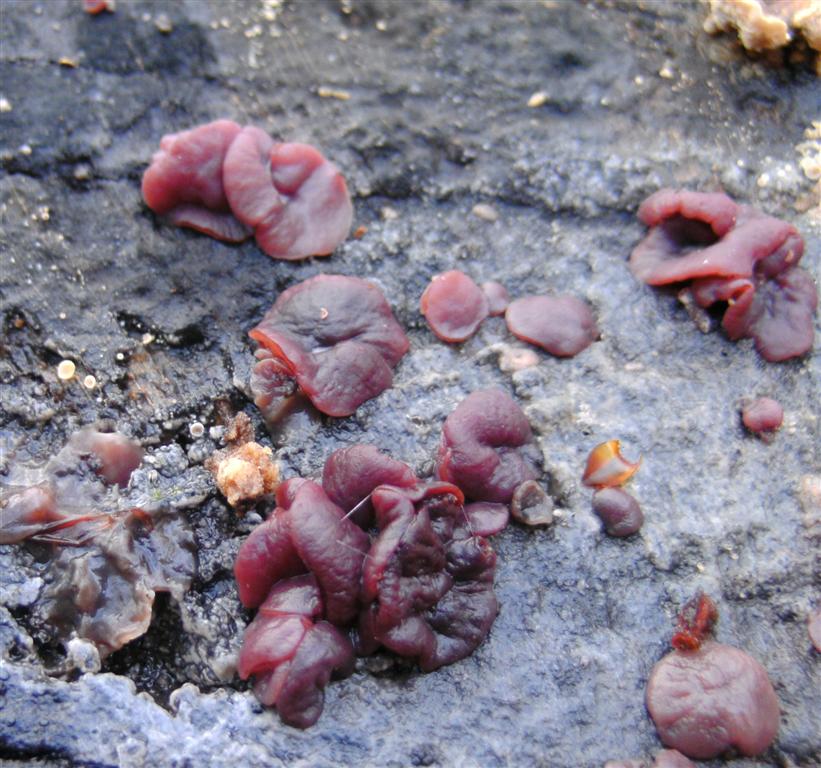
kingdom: Fungi
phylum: Ascomycota
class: Leotiomycetes
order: Helotiales
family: Gelatinodiscaceae
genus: Ascocoryne
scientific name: Ascocoryne cylichnium
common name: stor sejskive
